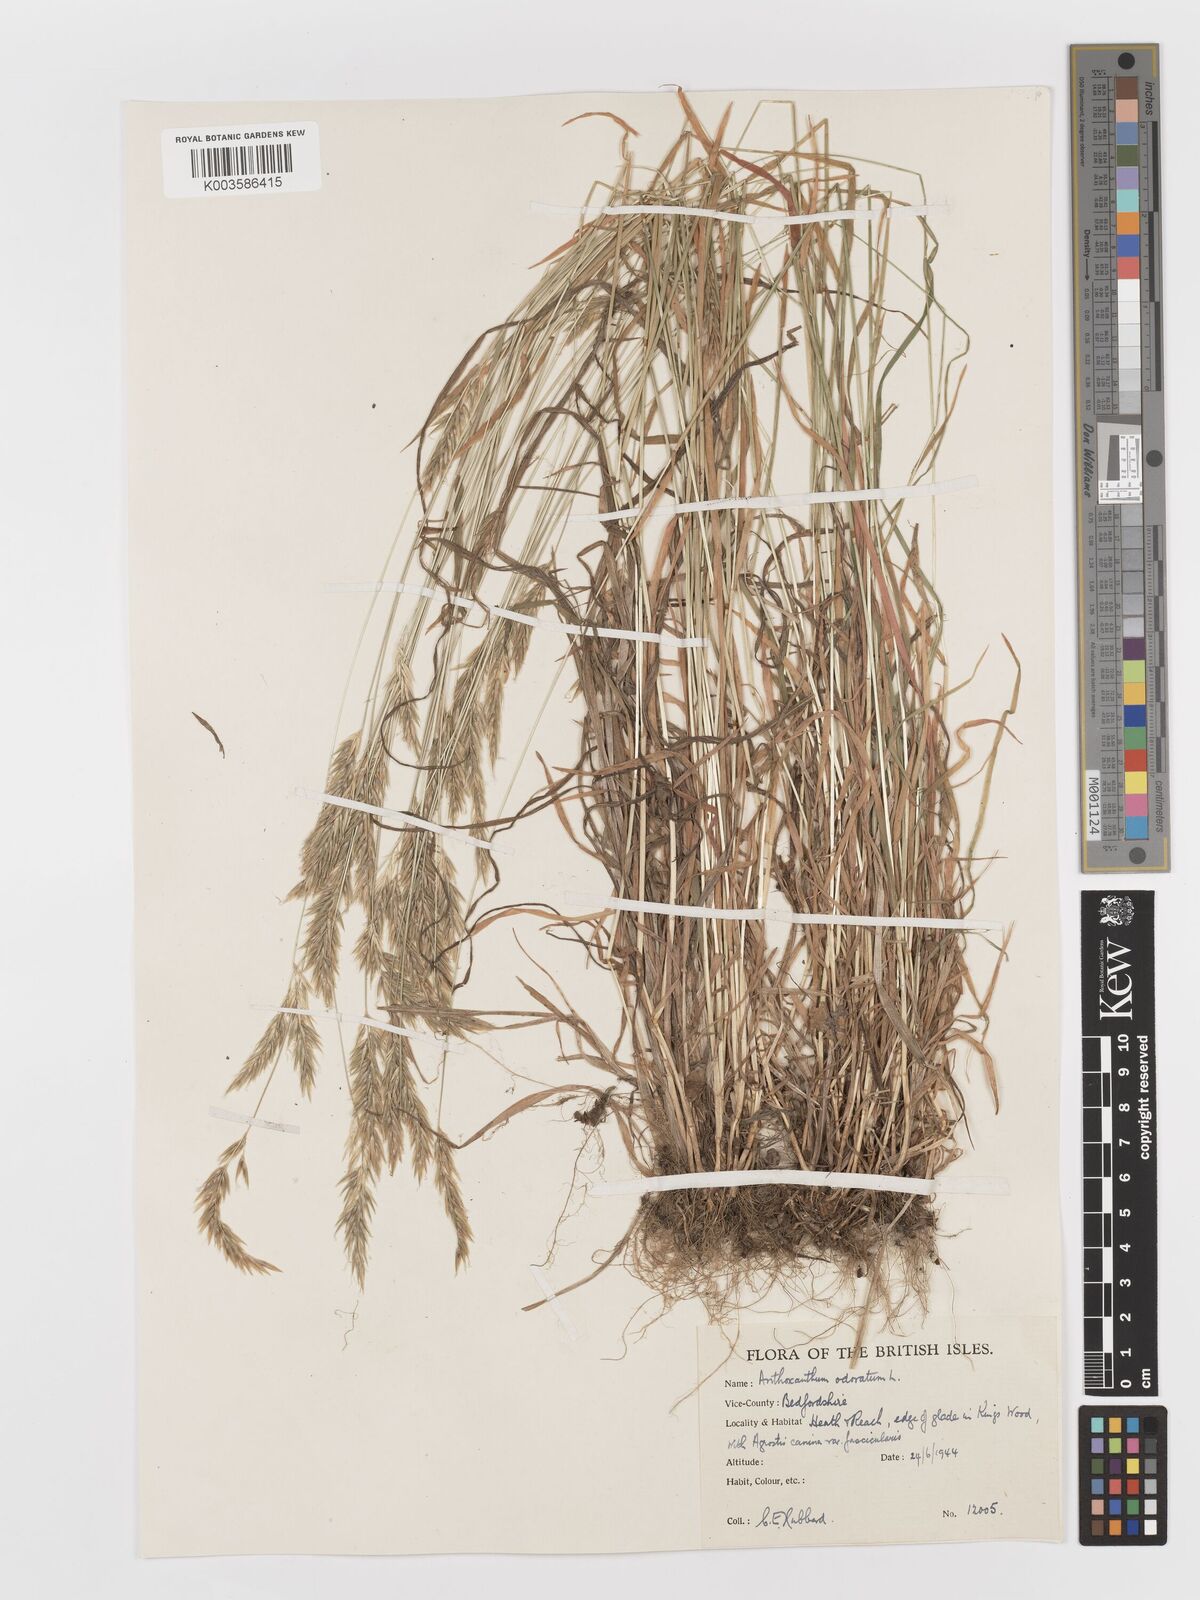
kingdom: Plantae
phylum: Tracheophyta
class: Liliopsida
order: Poales
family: Poaceae
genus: Anthoxanthum
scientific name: Anthoxanthum odoratum
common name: Sweet vernalgrass
